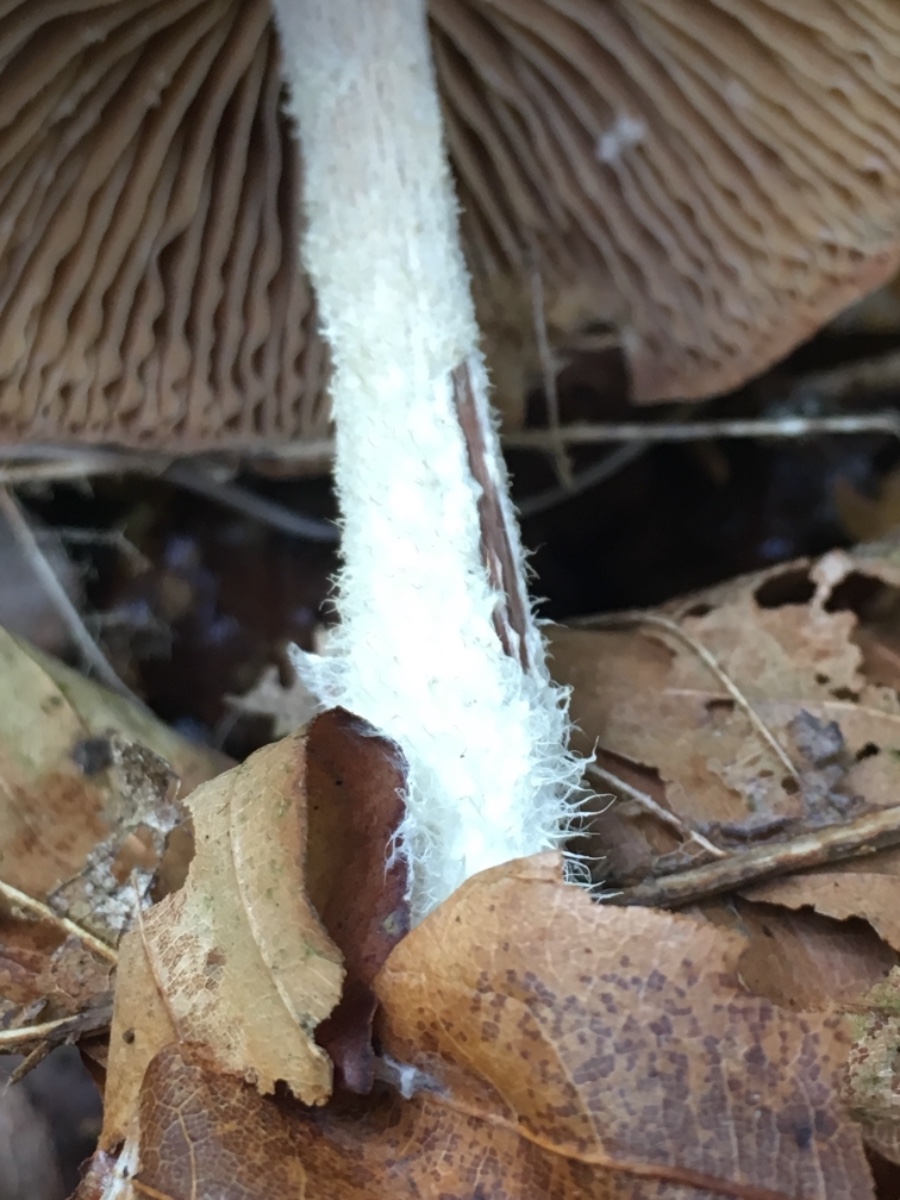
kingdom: Fungi
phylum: Basidiomycota
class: Agaricomycetes
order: Agaricales
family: Omphalotaceae
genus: Collybiopsis
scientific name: Collybiopsis peronata
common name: bestøvlet fladhat
